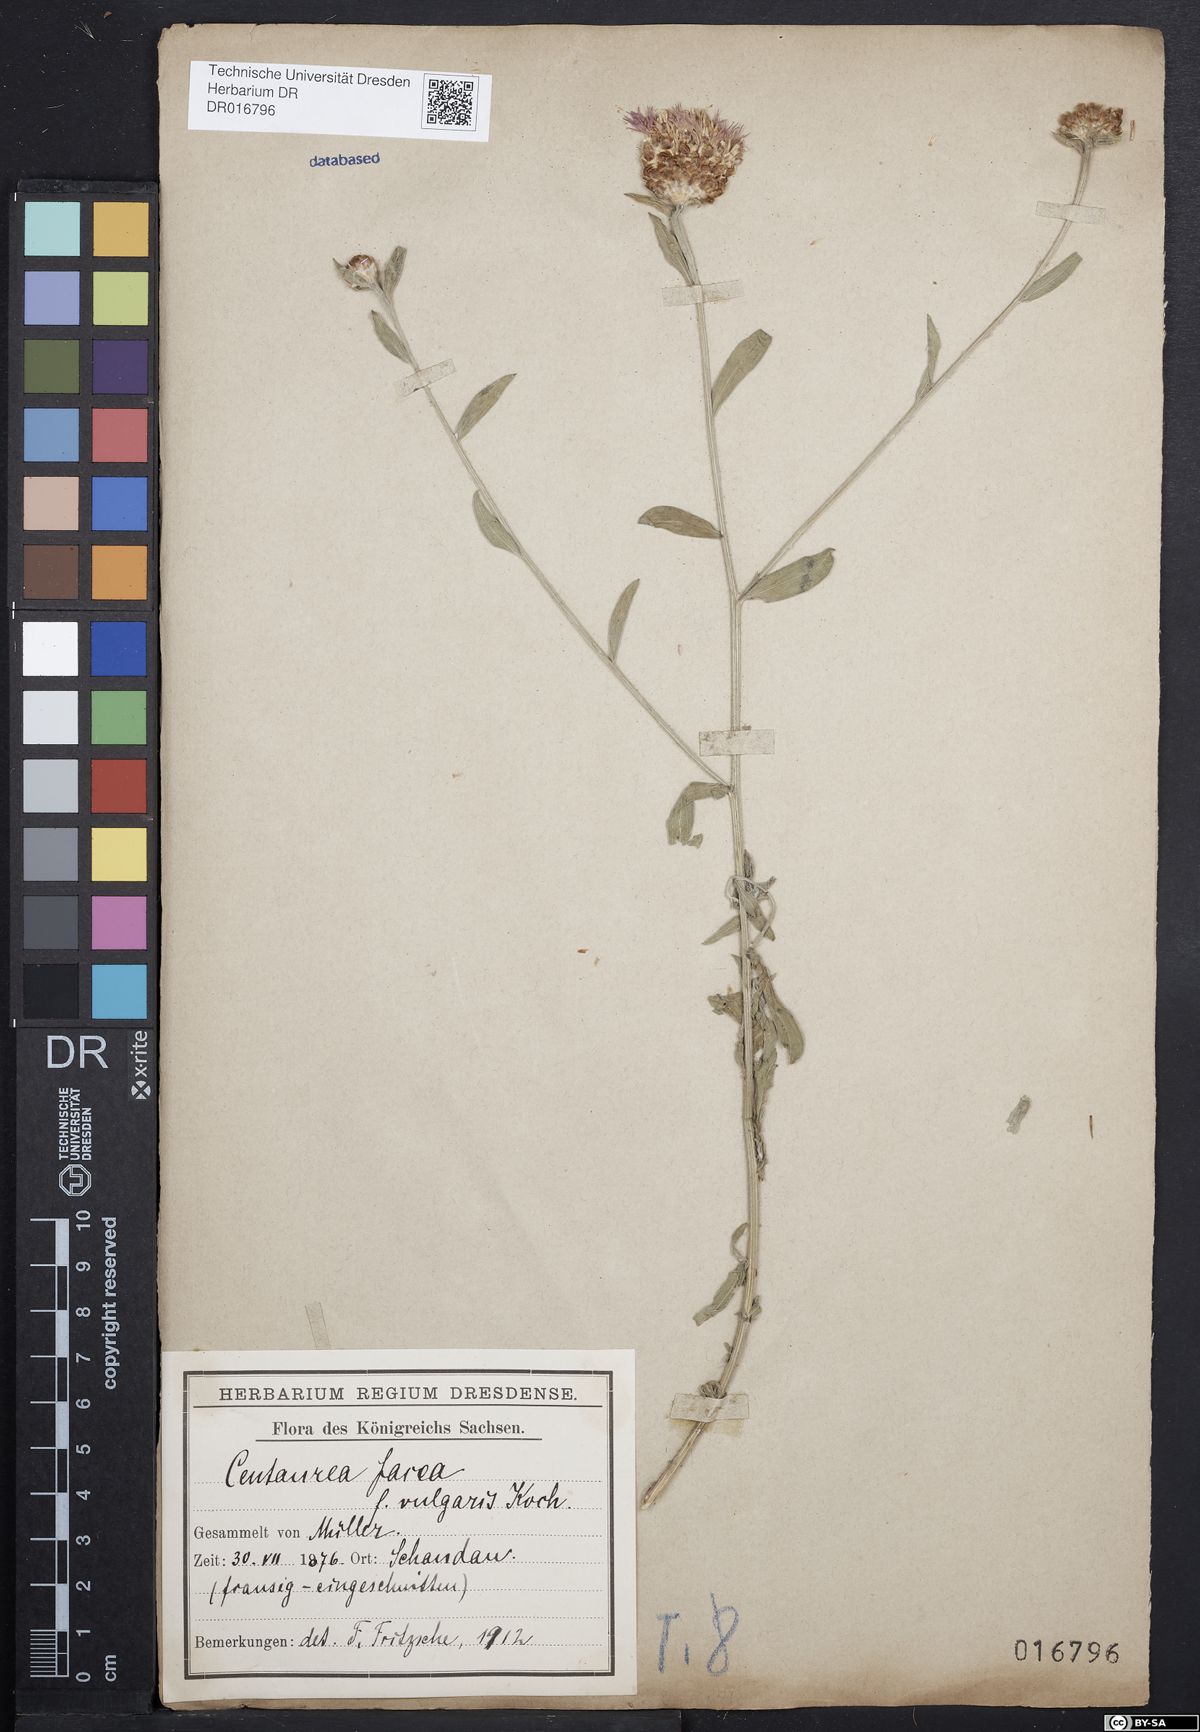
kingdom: Plantae
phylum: Tracheophyta
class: Magnoliopsida
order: Asterales
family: Asteraceae
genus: Centaurea
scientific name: Centaurea jacea
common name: Brown knapweed
